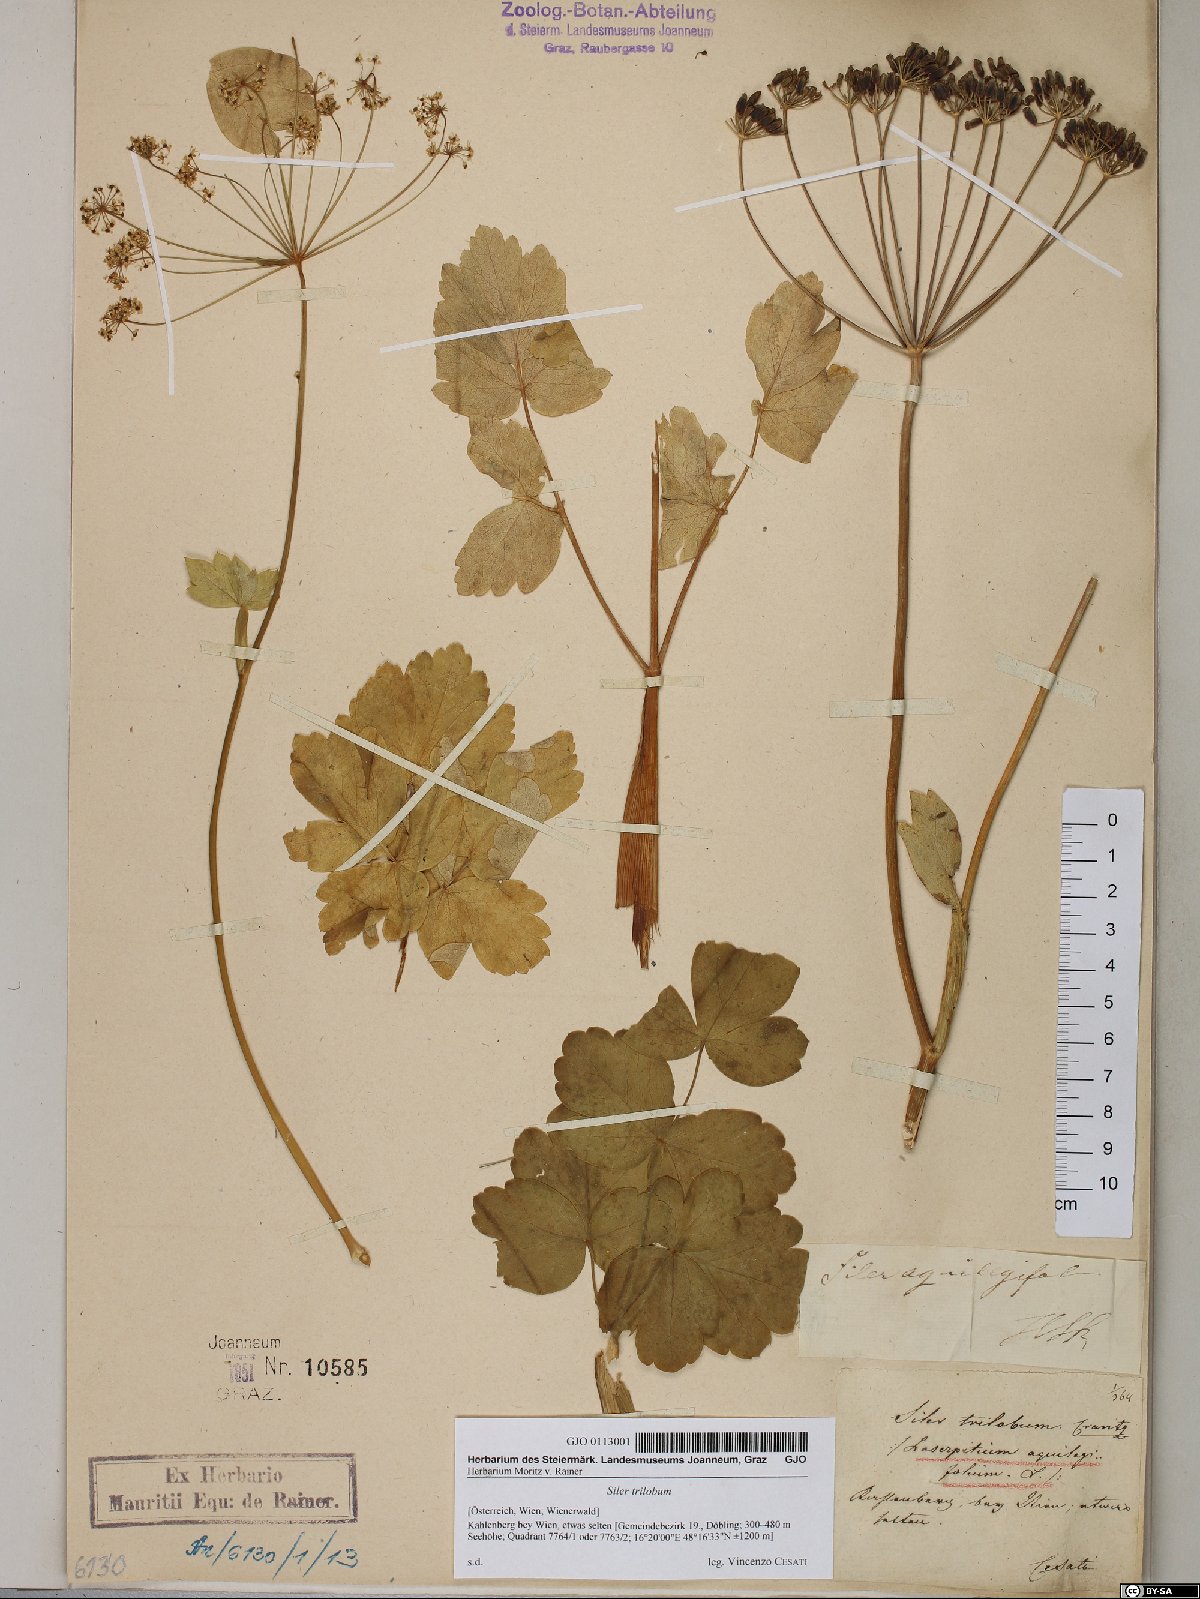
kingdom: Plantae
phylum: Tracheophyta
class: Magnoliopsida
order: Apiales
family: Apiaceae
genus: Laser
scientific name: Laser trilobum
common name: Laser
